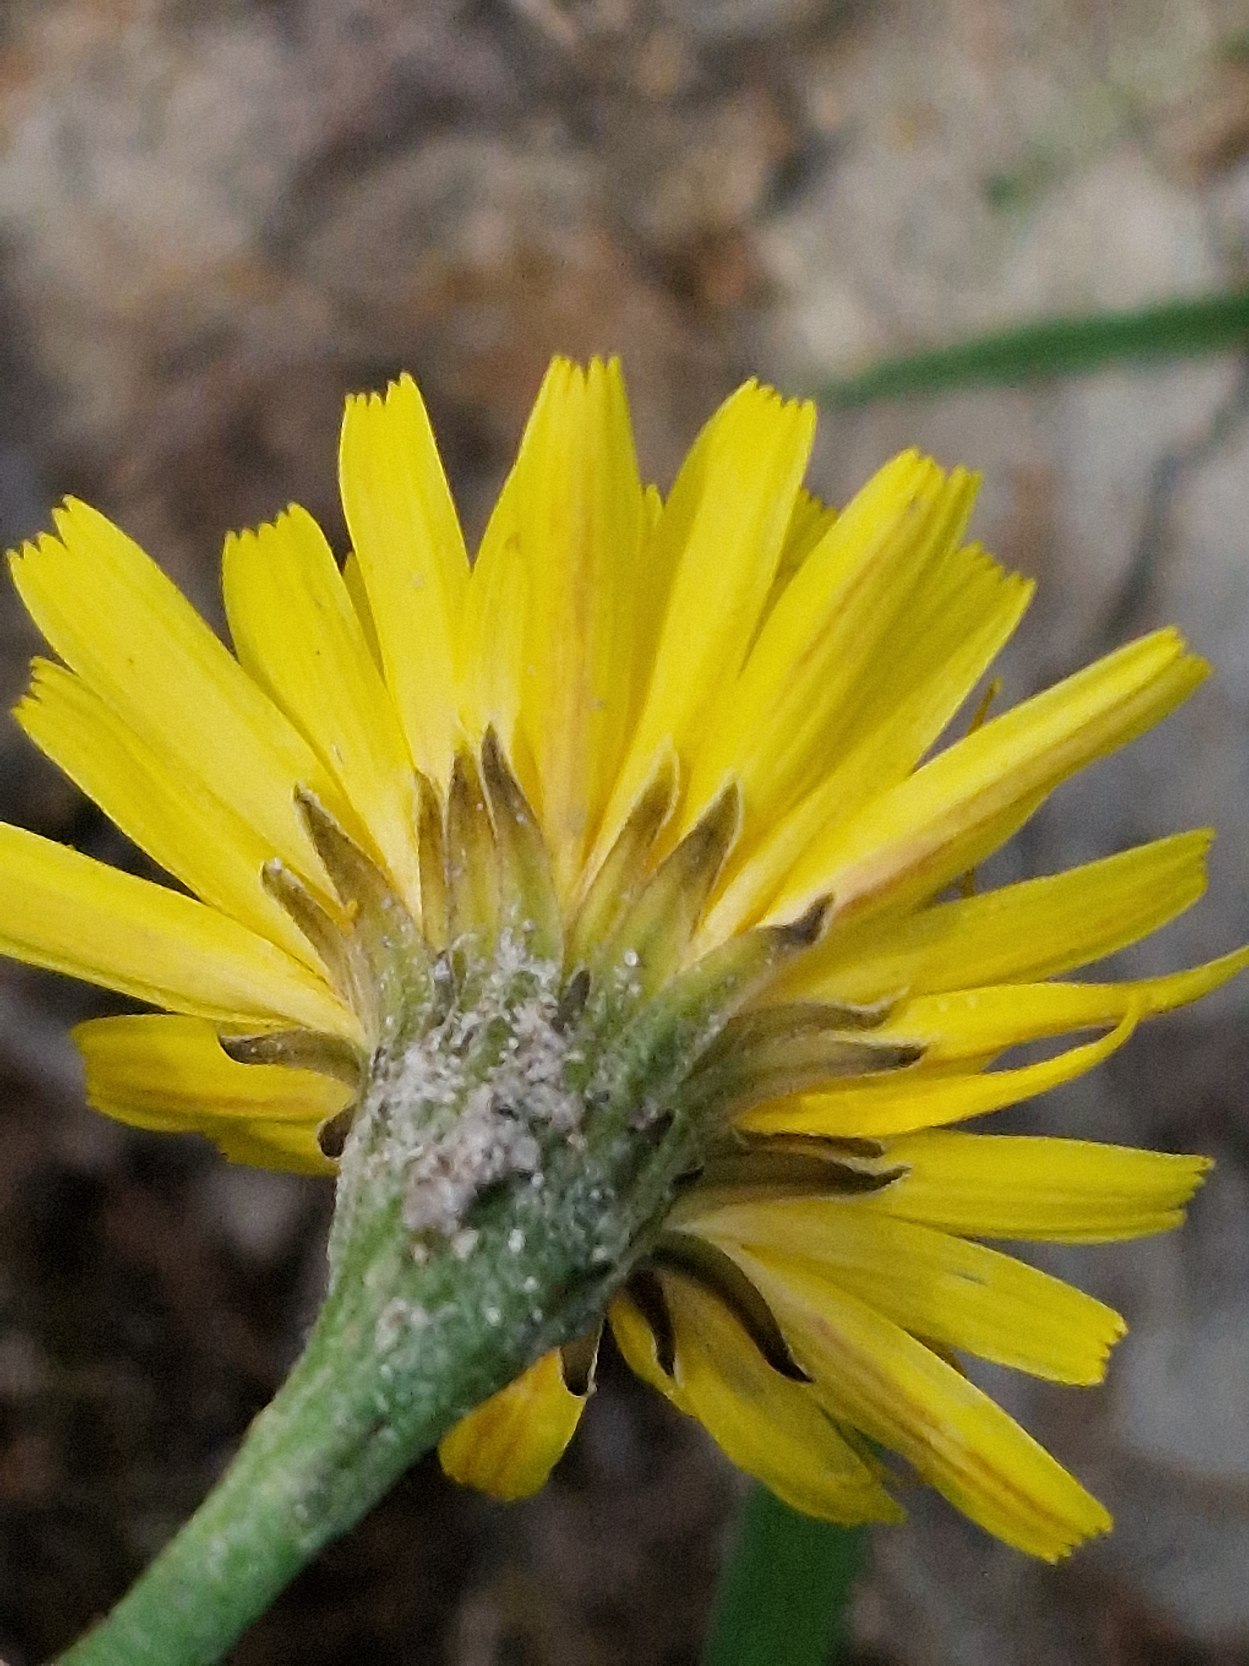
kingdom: Plantae
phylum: Tracheophyta
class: Magnoliopsida
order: Asterales
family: Asteraceae
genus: Scorzoneroides
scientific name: Scorzoneroides autumnalis
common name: Høst-borst
